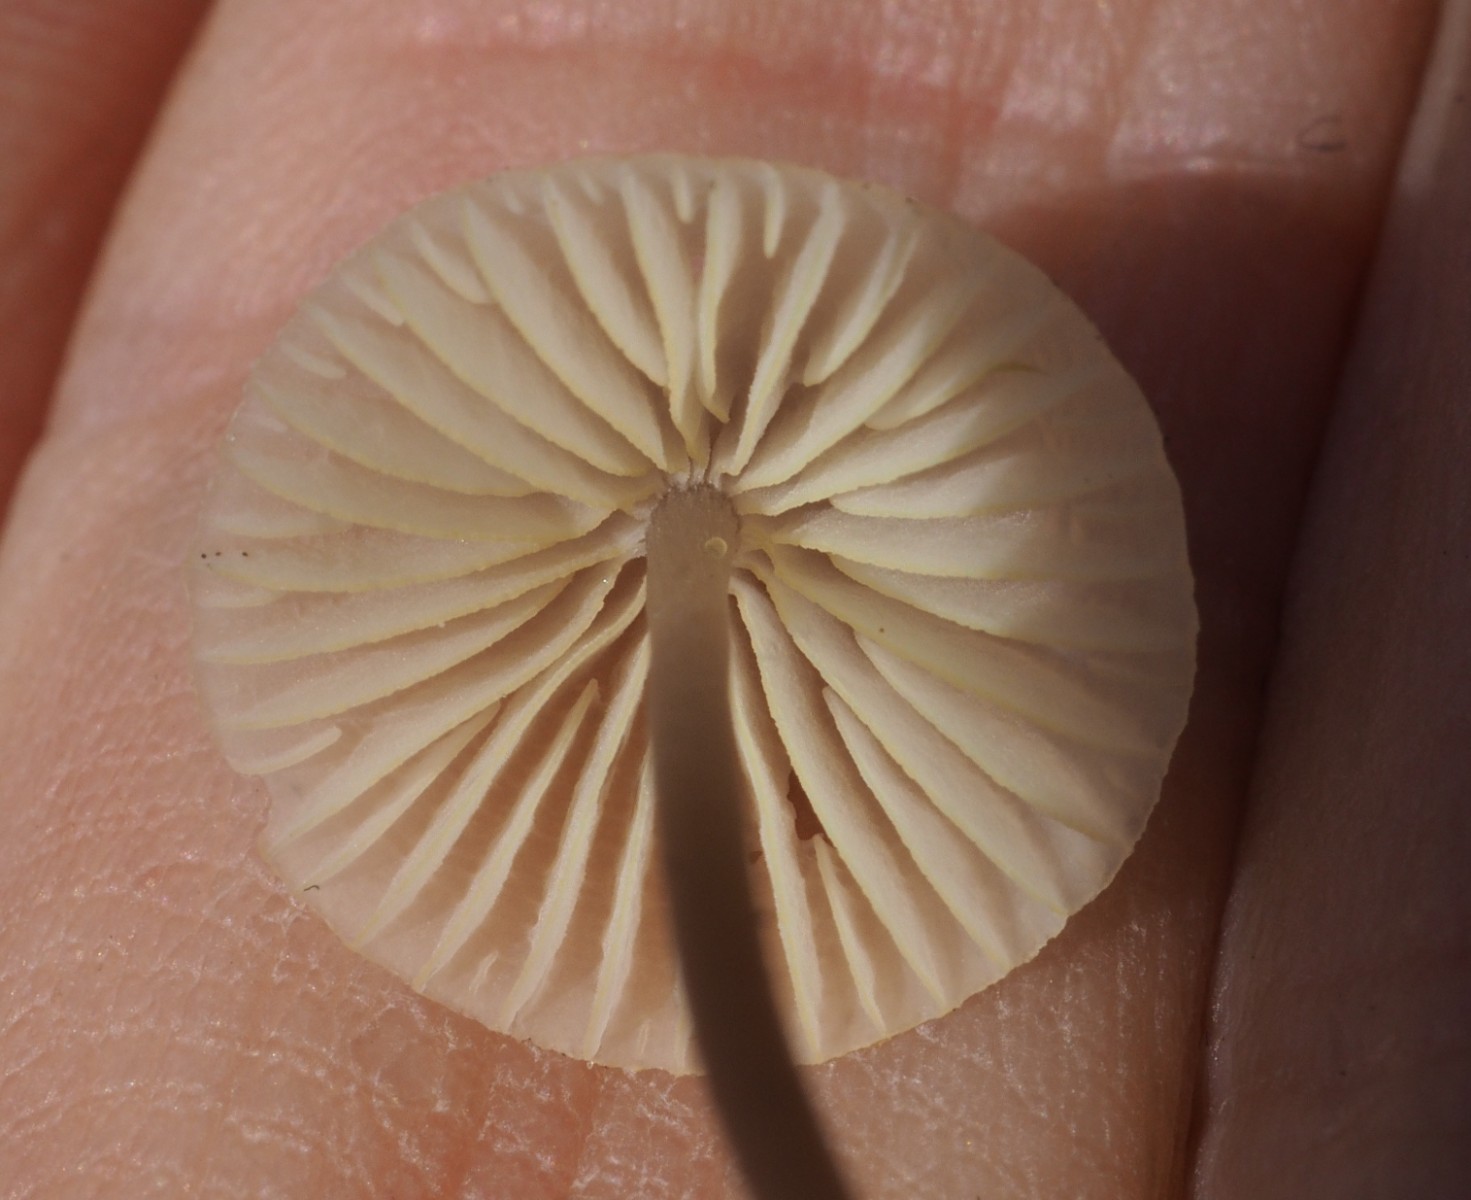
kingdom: Fungi
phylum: Basidiomycota
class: Agaricomycetes
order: Agaricales
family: Mycenaceae
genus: Mycena
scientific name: Mycena flavescens
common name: grågul huesvamp
